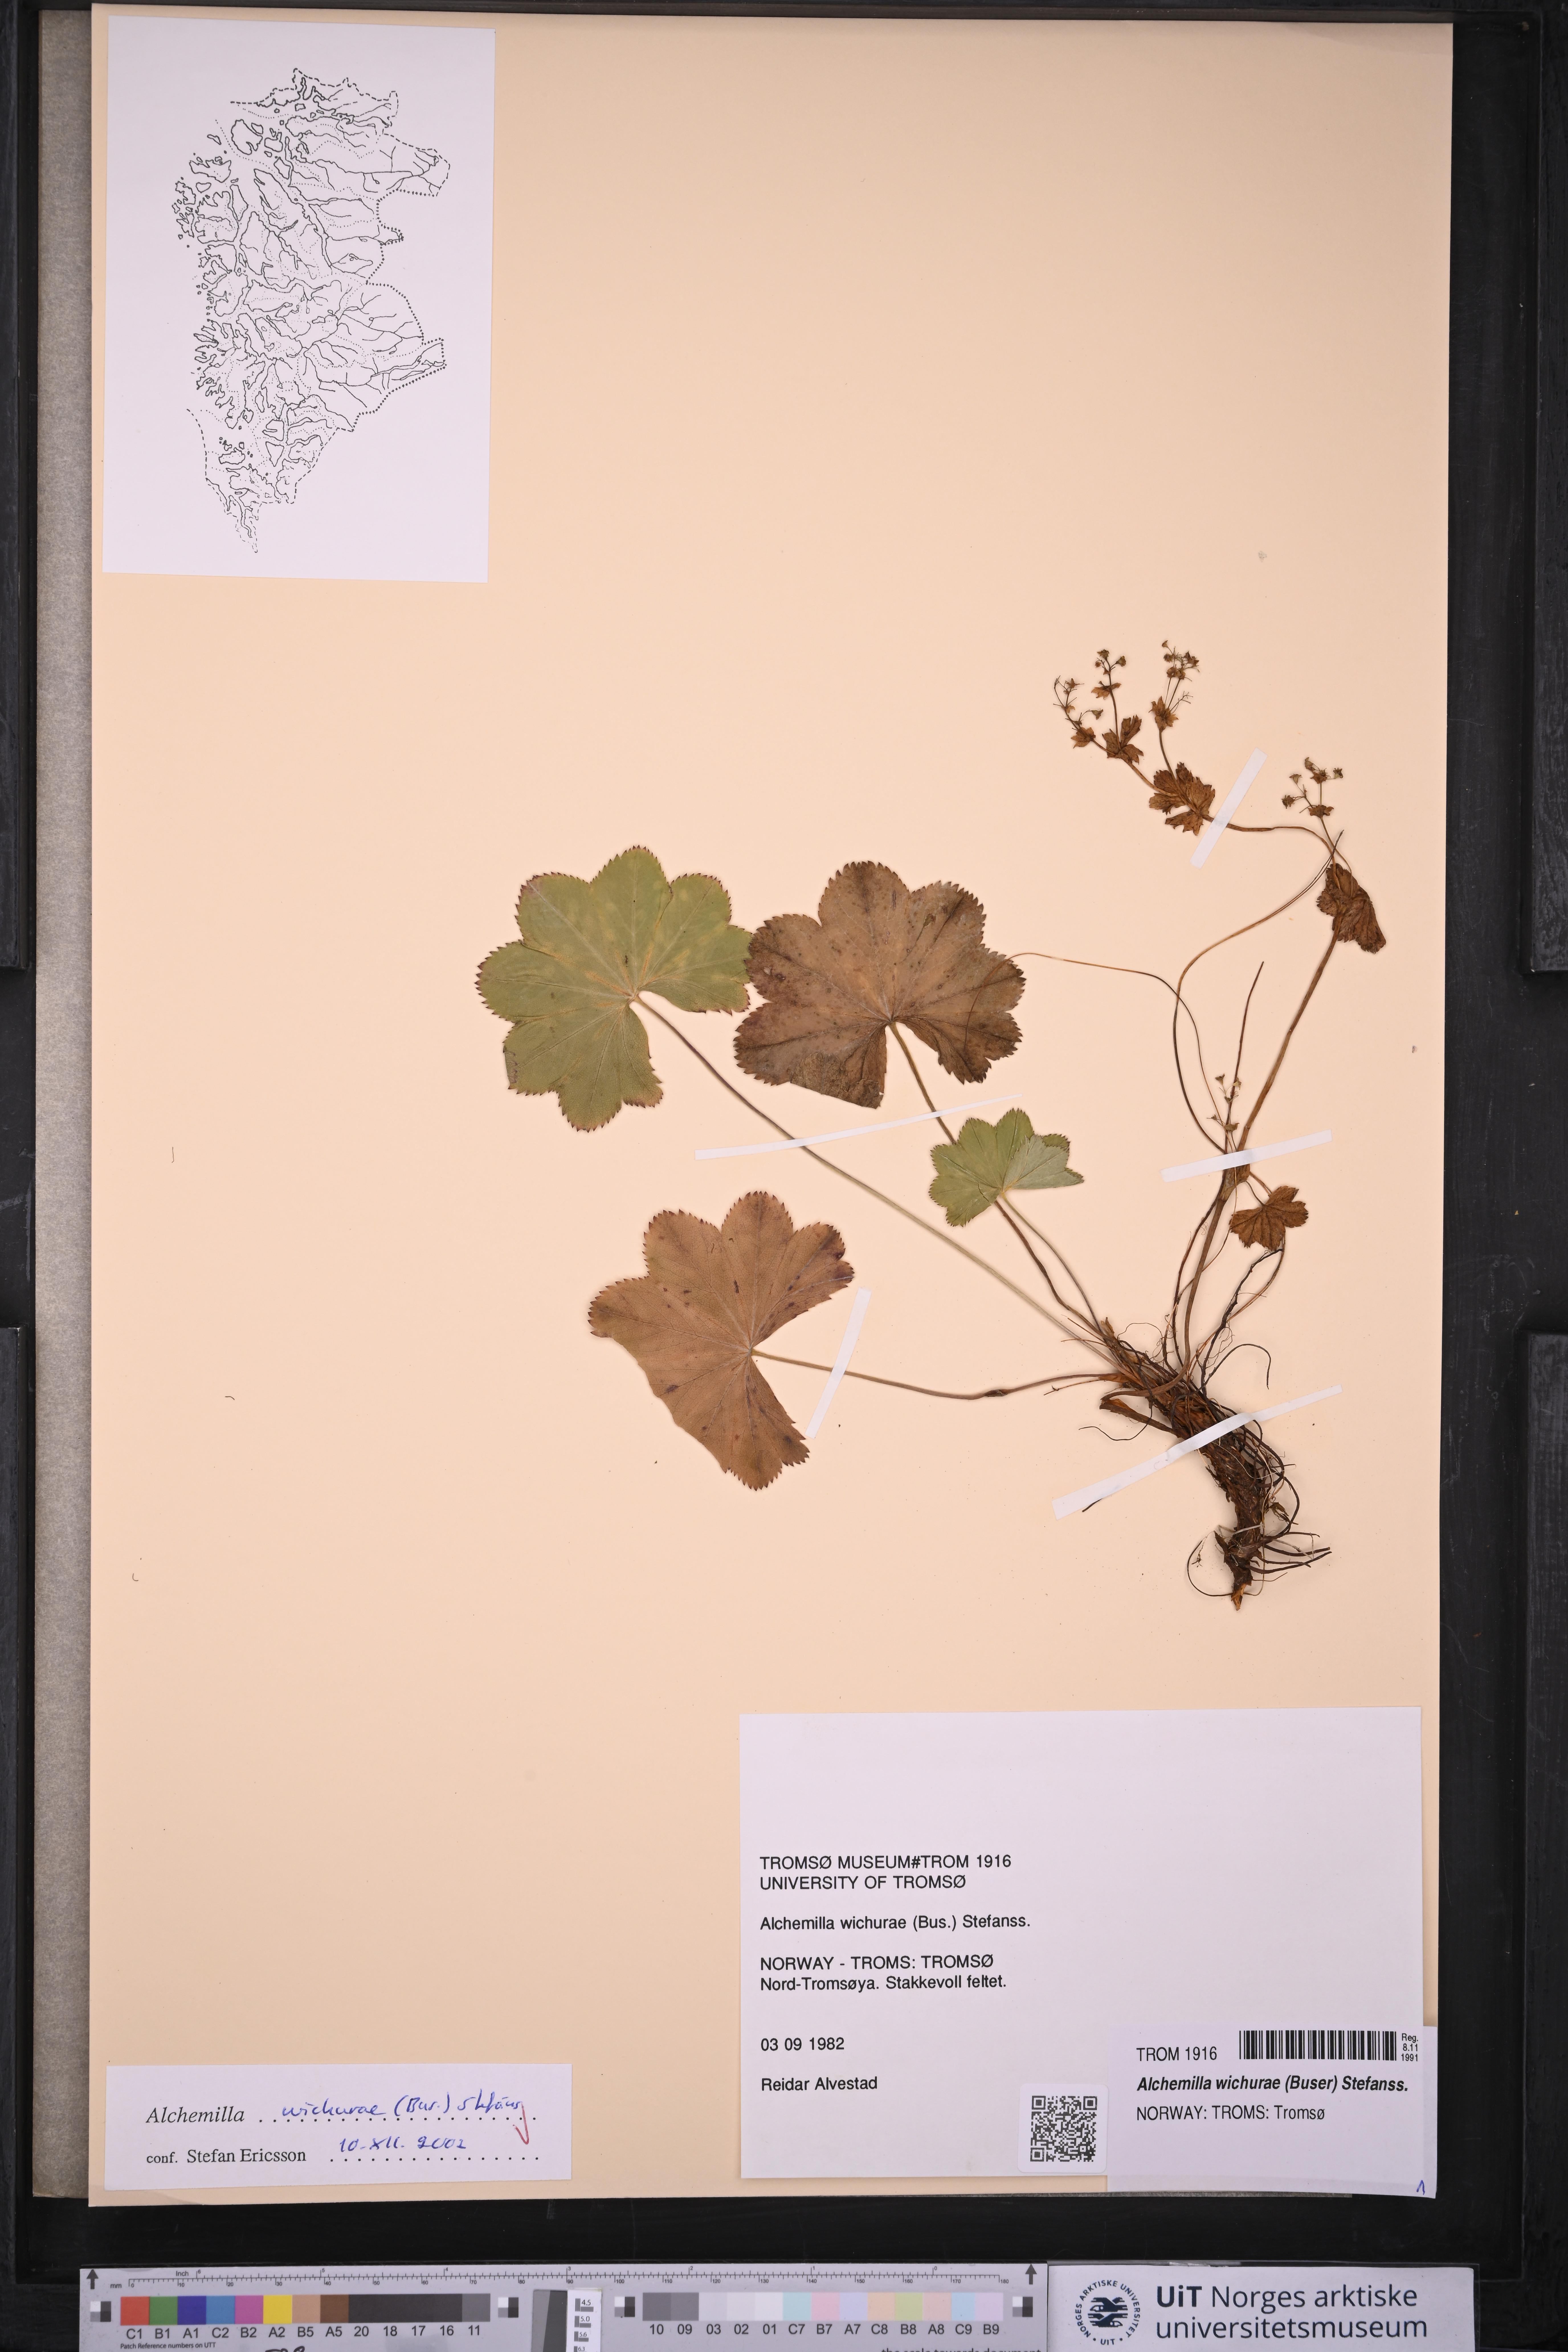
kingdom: Plantae
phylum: Tracheophyta
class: Magnoliopsida
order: Rosales
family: Rosaceae
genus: Alchemilla
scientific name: Alchemilla wichurae
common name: Rock lady's mantle
